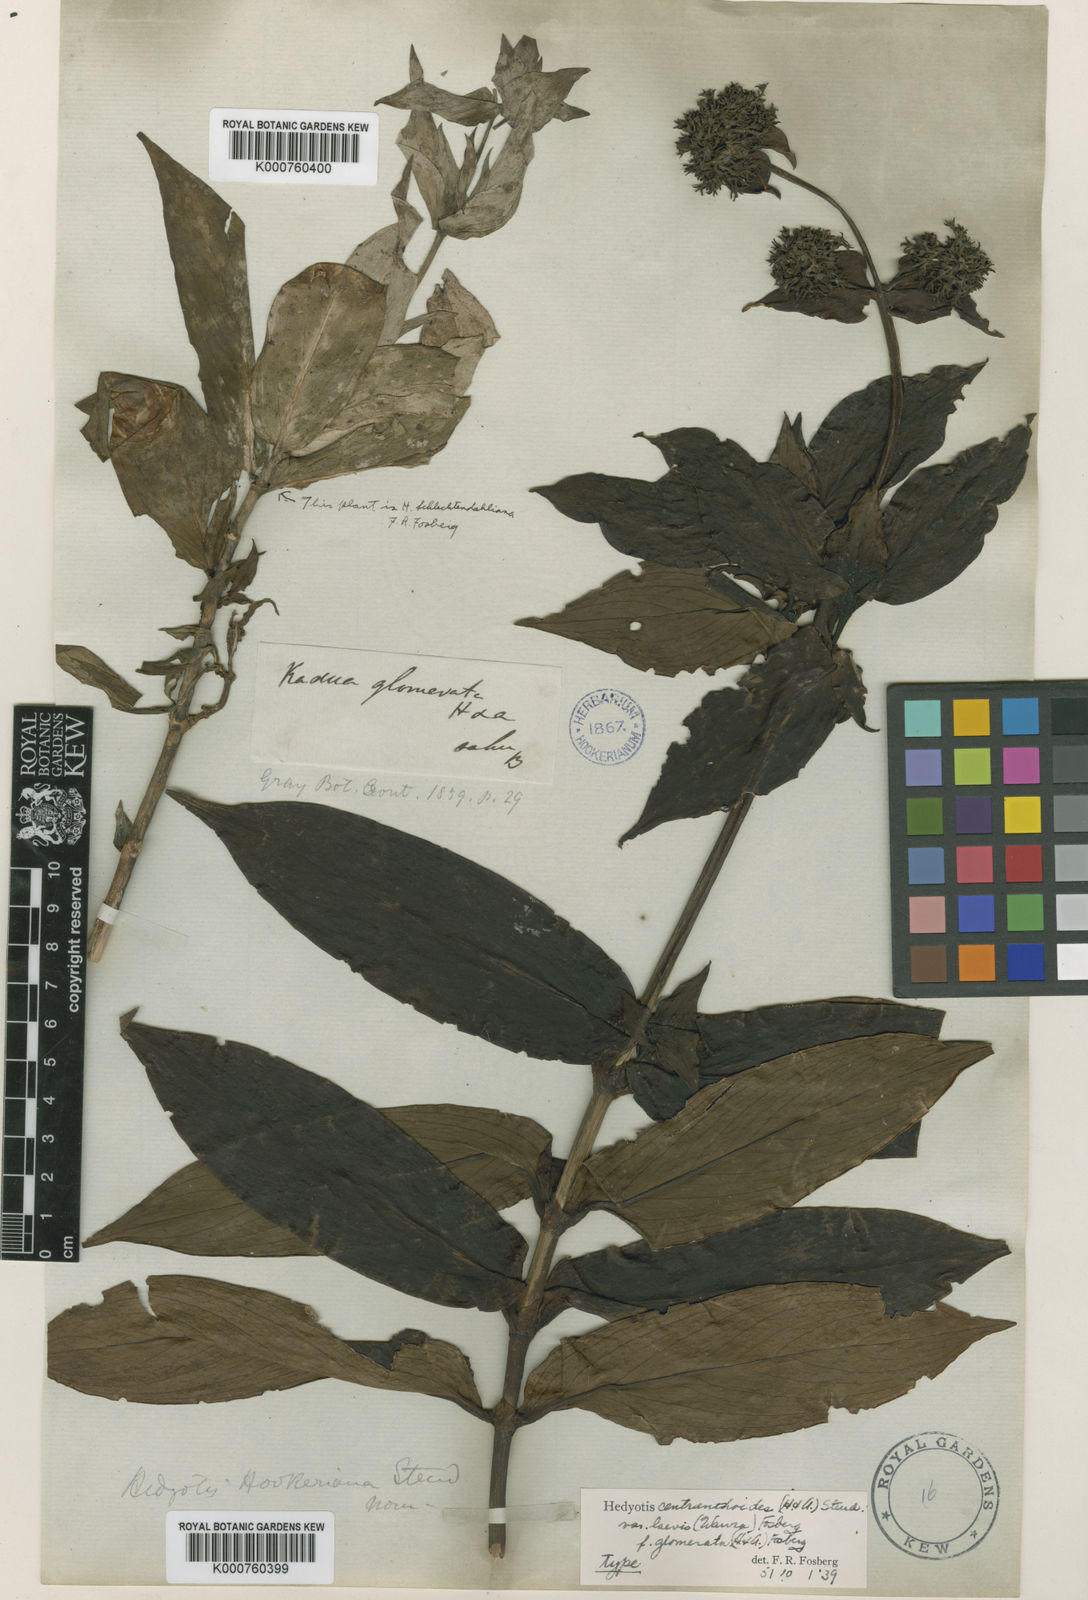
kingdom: Plantae
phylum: Tracheophyta
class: Magnoliopsida
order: Gentianales
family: Rubiaceae
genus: Kadua
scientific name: Kadua centranthoides
